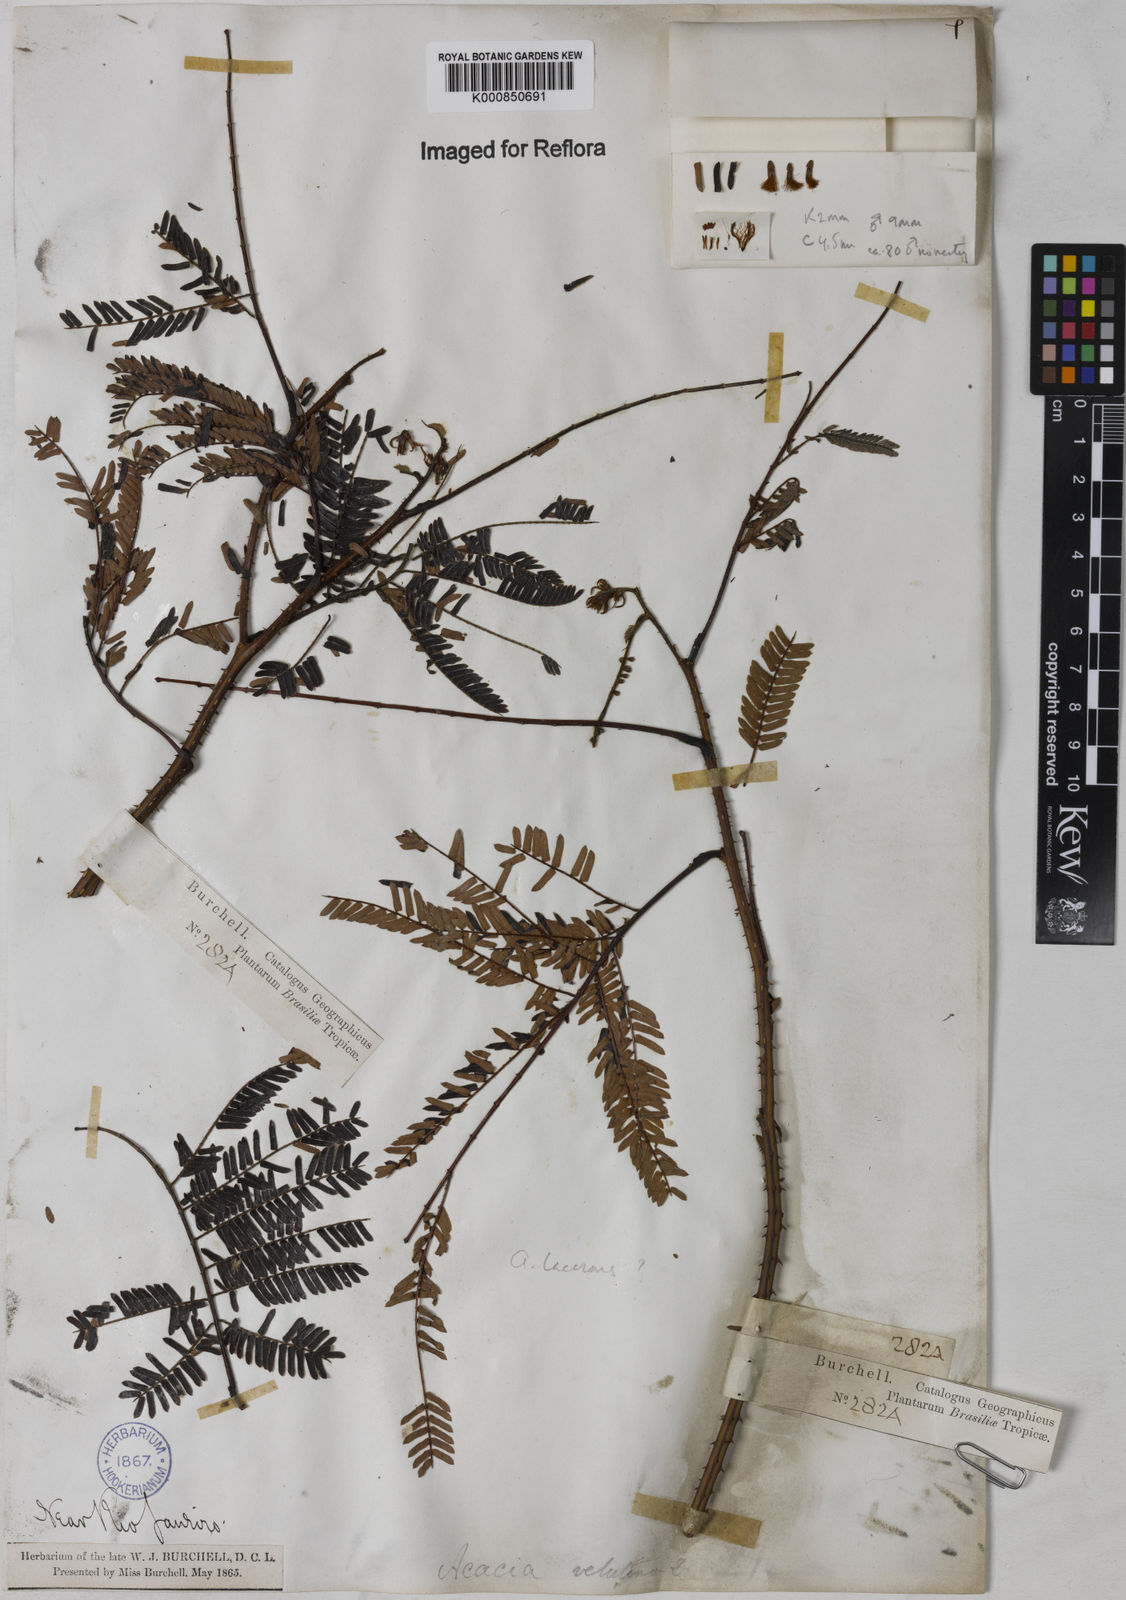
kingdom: Plantae
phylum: Tracheophyta
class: Magnoliopsida
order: Fabales
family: Fabaceae
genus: Senegalia
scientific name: Senegalia lacerans
